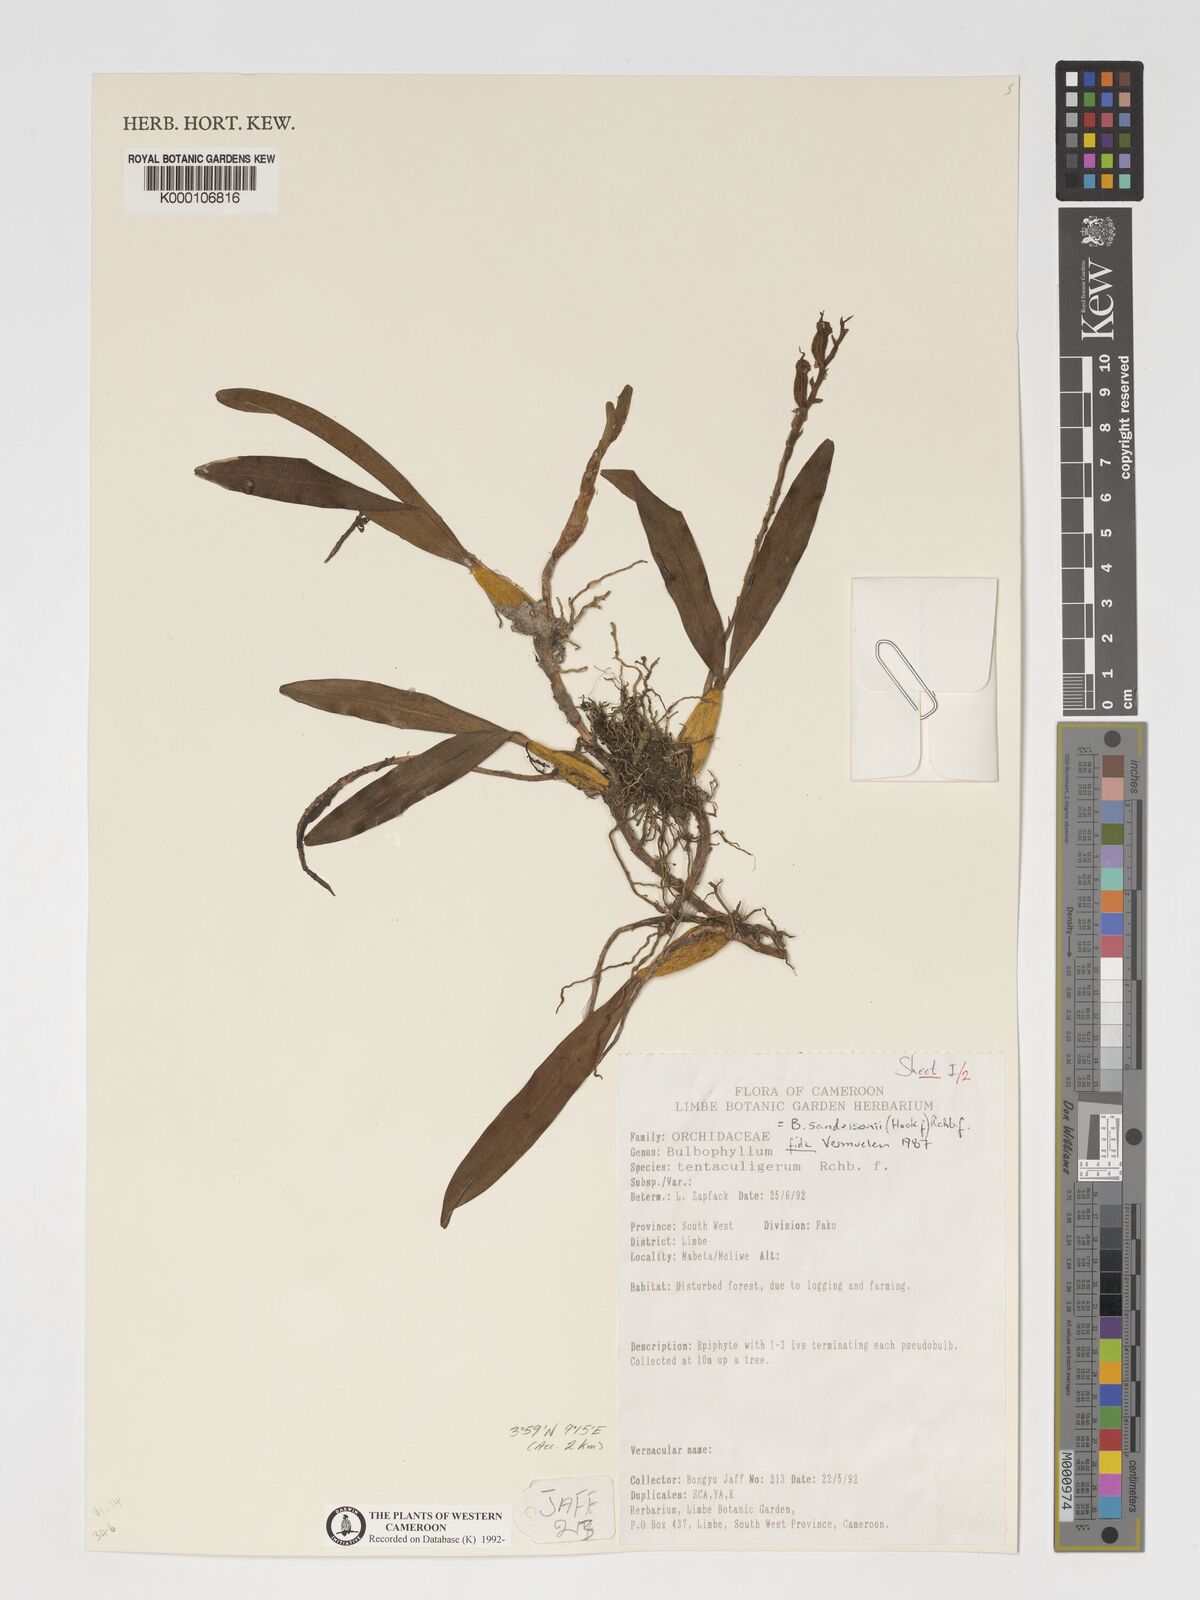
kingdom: Plantae
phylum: Tracheophyta
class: Liliopsida
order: Asparagales
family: Orchidaceae
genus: Bulbophyllum
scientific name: Bulbophyllum sandersonii
